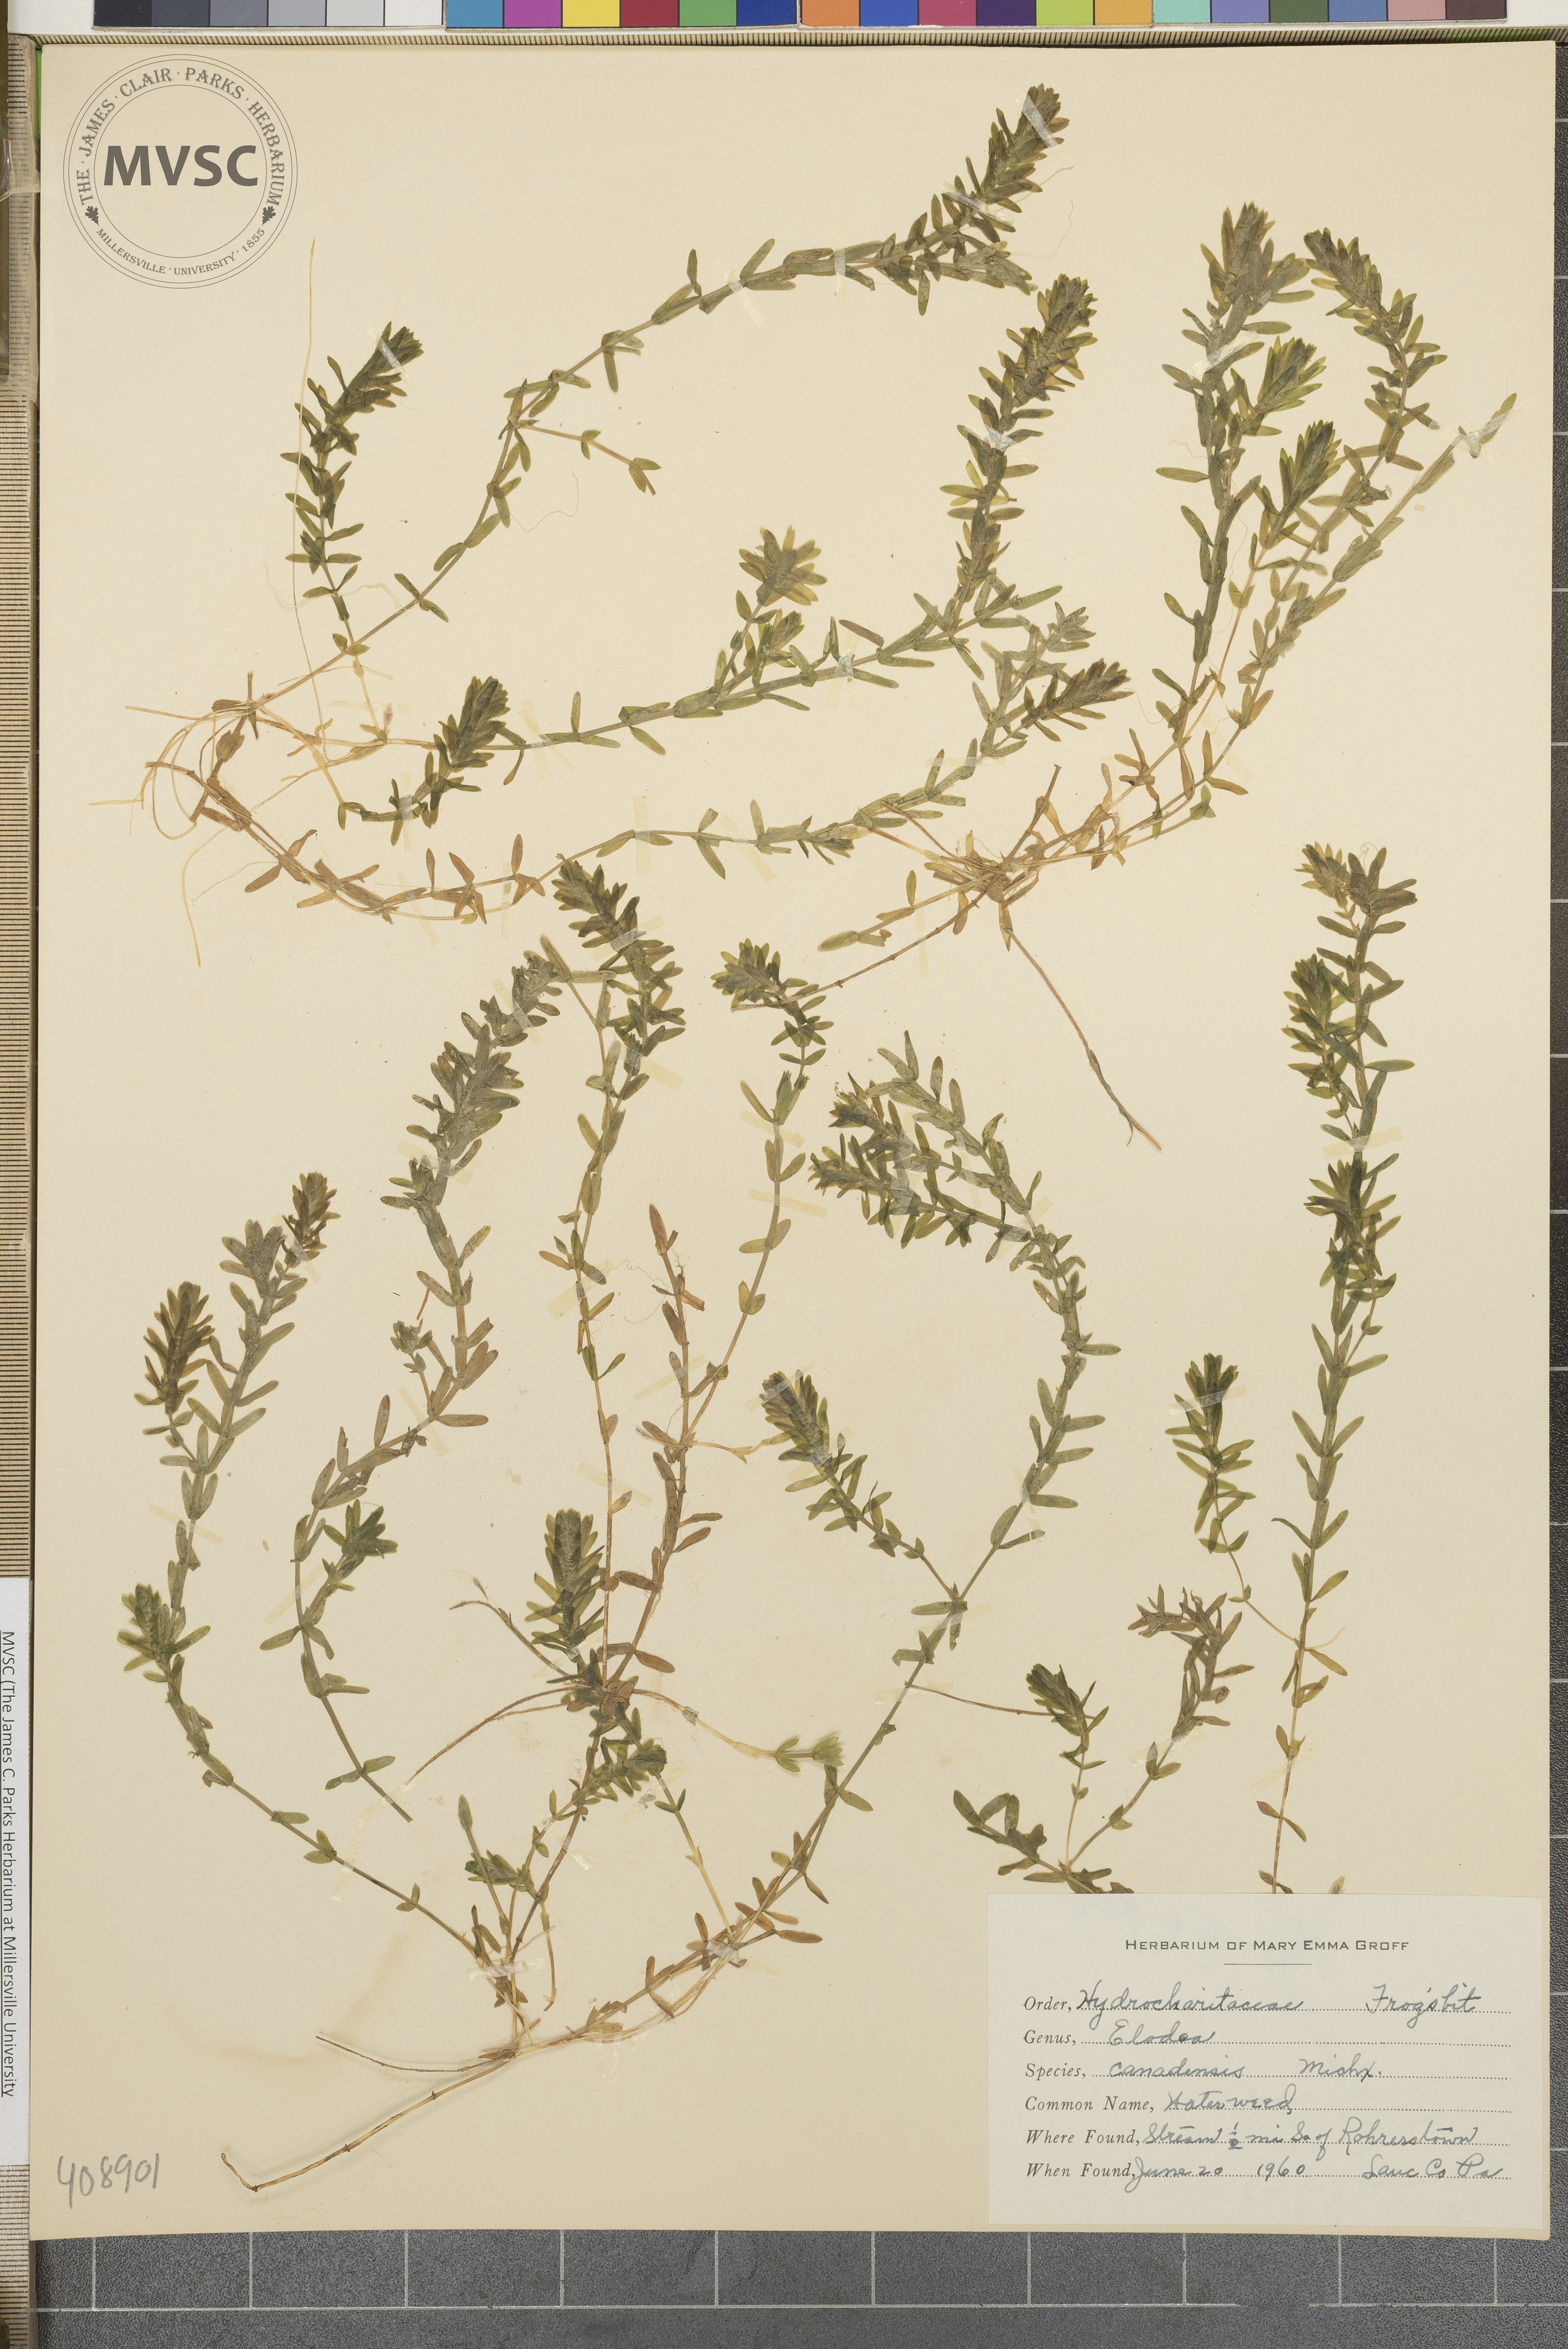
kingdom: Plantae
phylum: Tracheophyta
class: Liliopsida
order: Alismatales
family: Hydrocharitaceae
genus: Elodea
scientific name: Elodea canadensis
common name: Canadian waterweed
